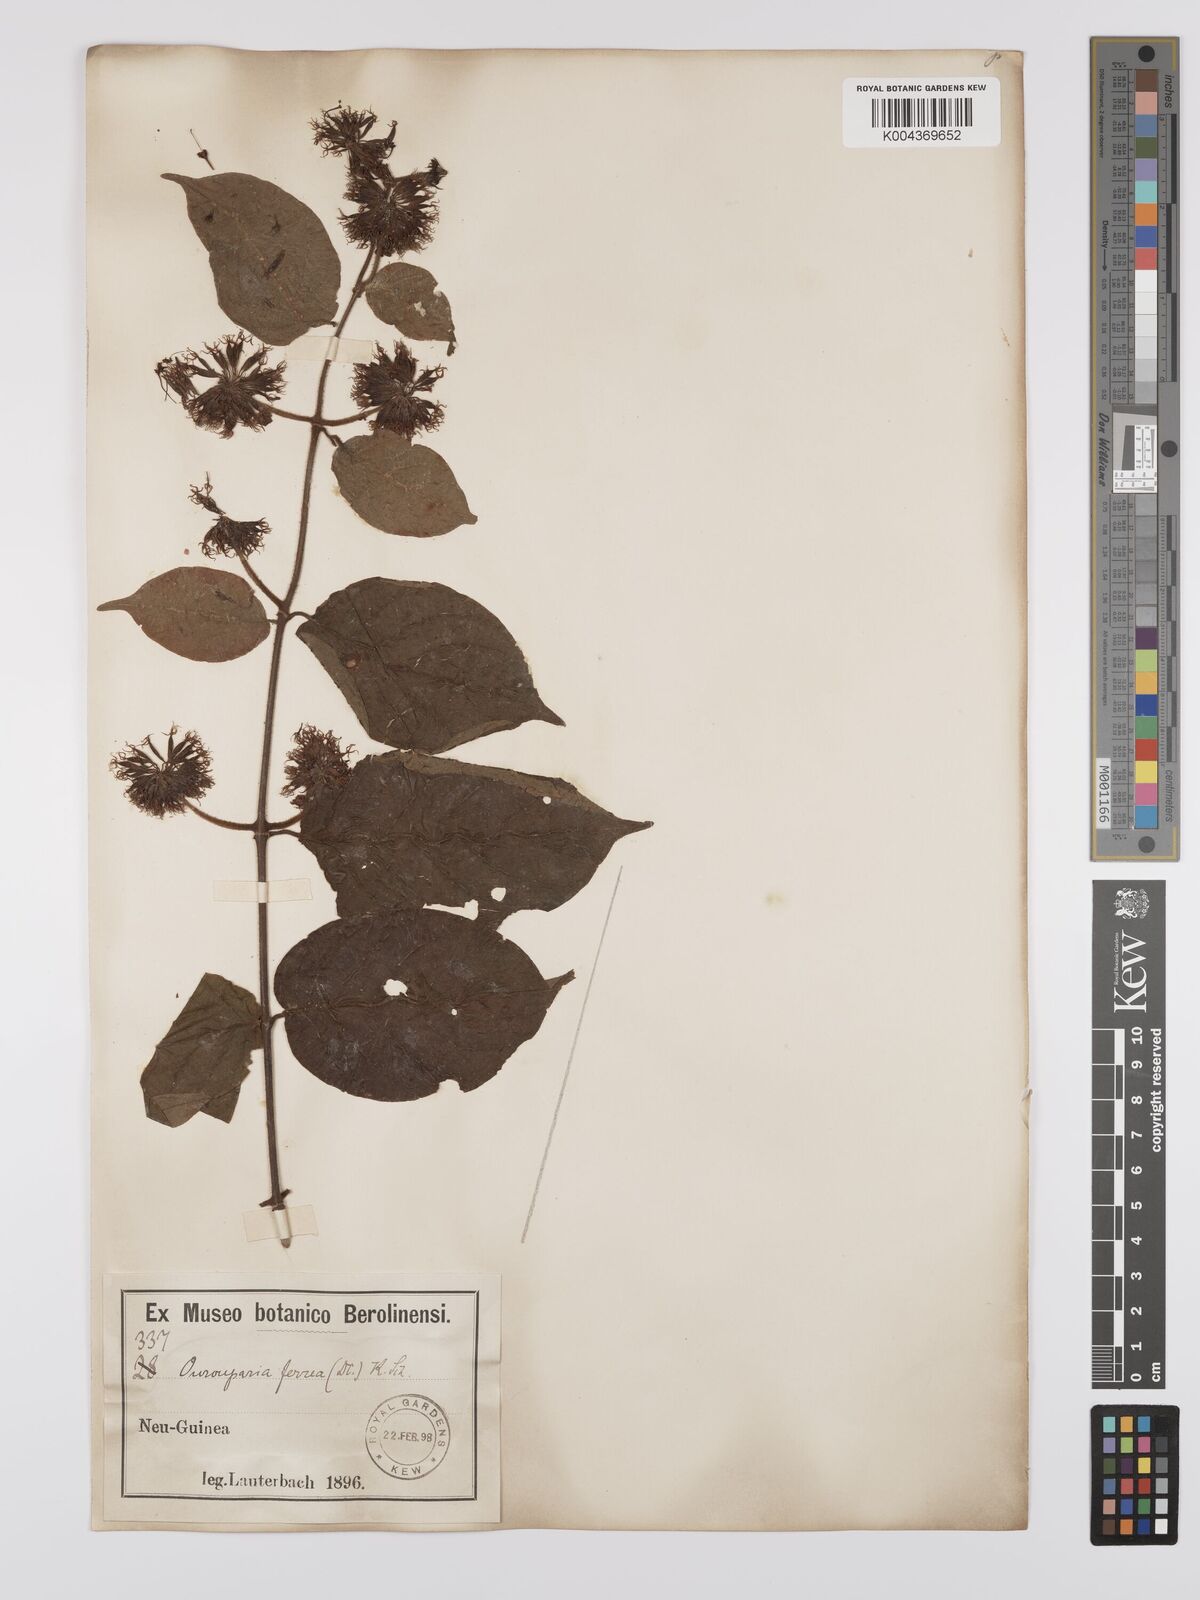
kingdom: Plantae
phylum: Tracheophyta
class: Magnoliopsida
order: Gentianales
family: Rubiaceae
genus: Uncaria
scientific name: Uncaria lanosa
